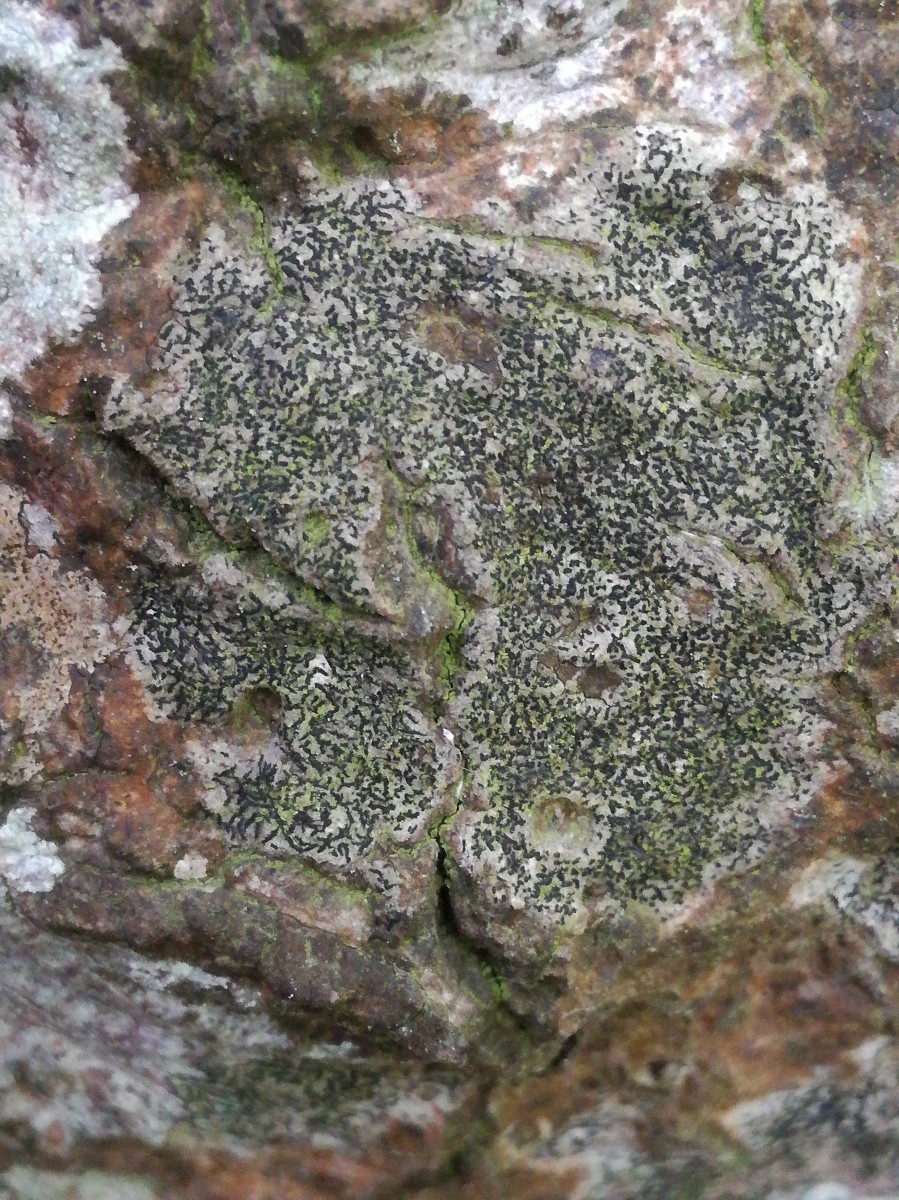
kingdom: Fungi
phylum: Ascomycota
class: Arthoniomycetes
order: Arthoniales
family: Arthoniaceae
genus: Arthonia
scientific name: Arthonia atra
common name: sort bogstavlav
